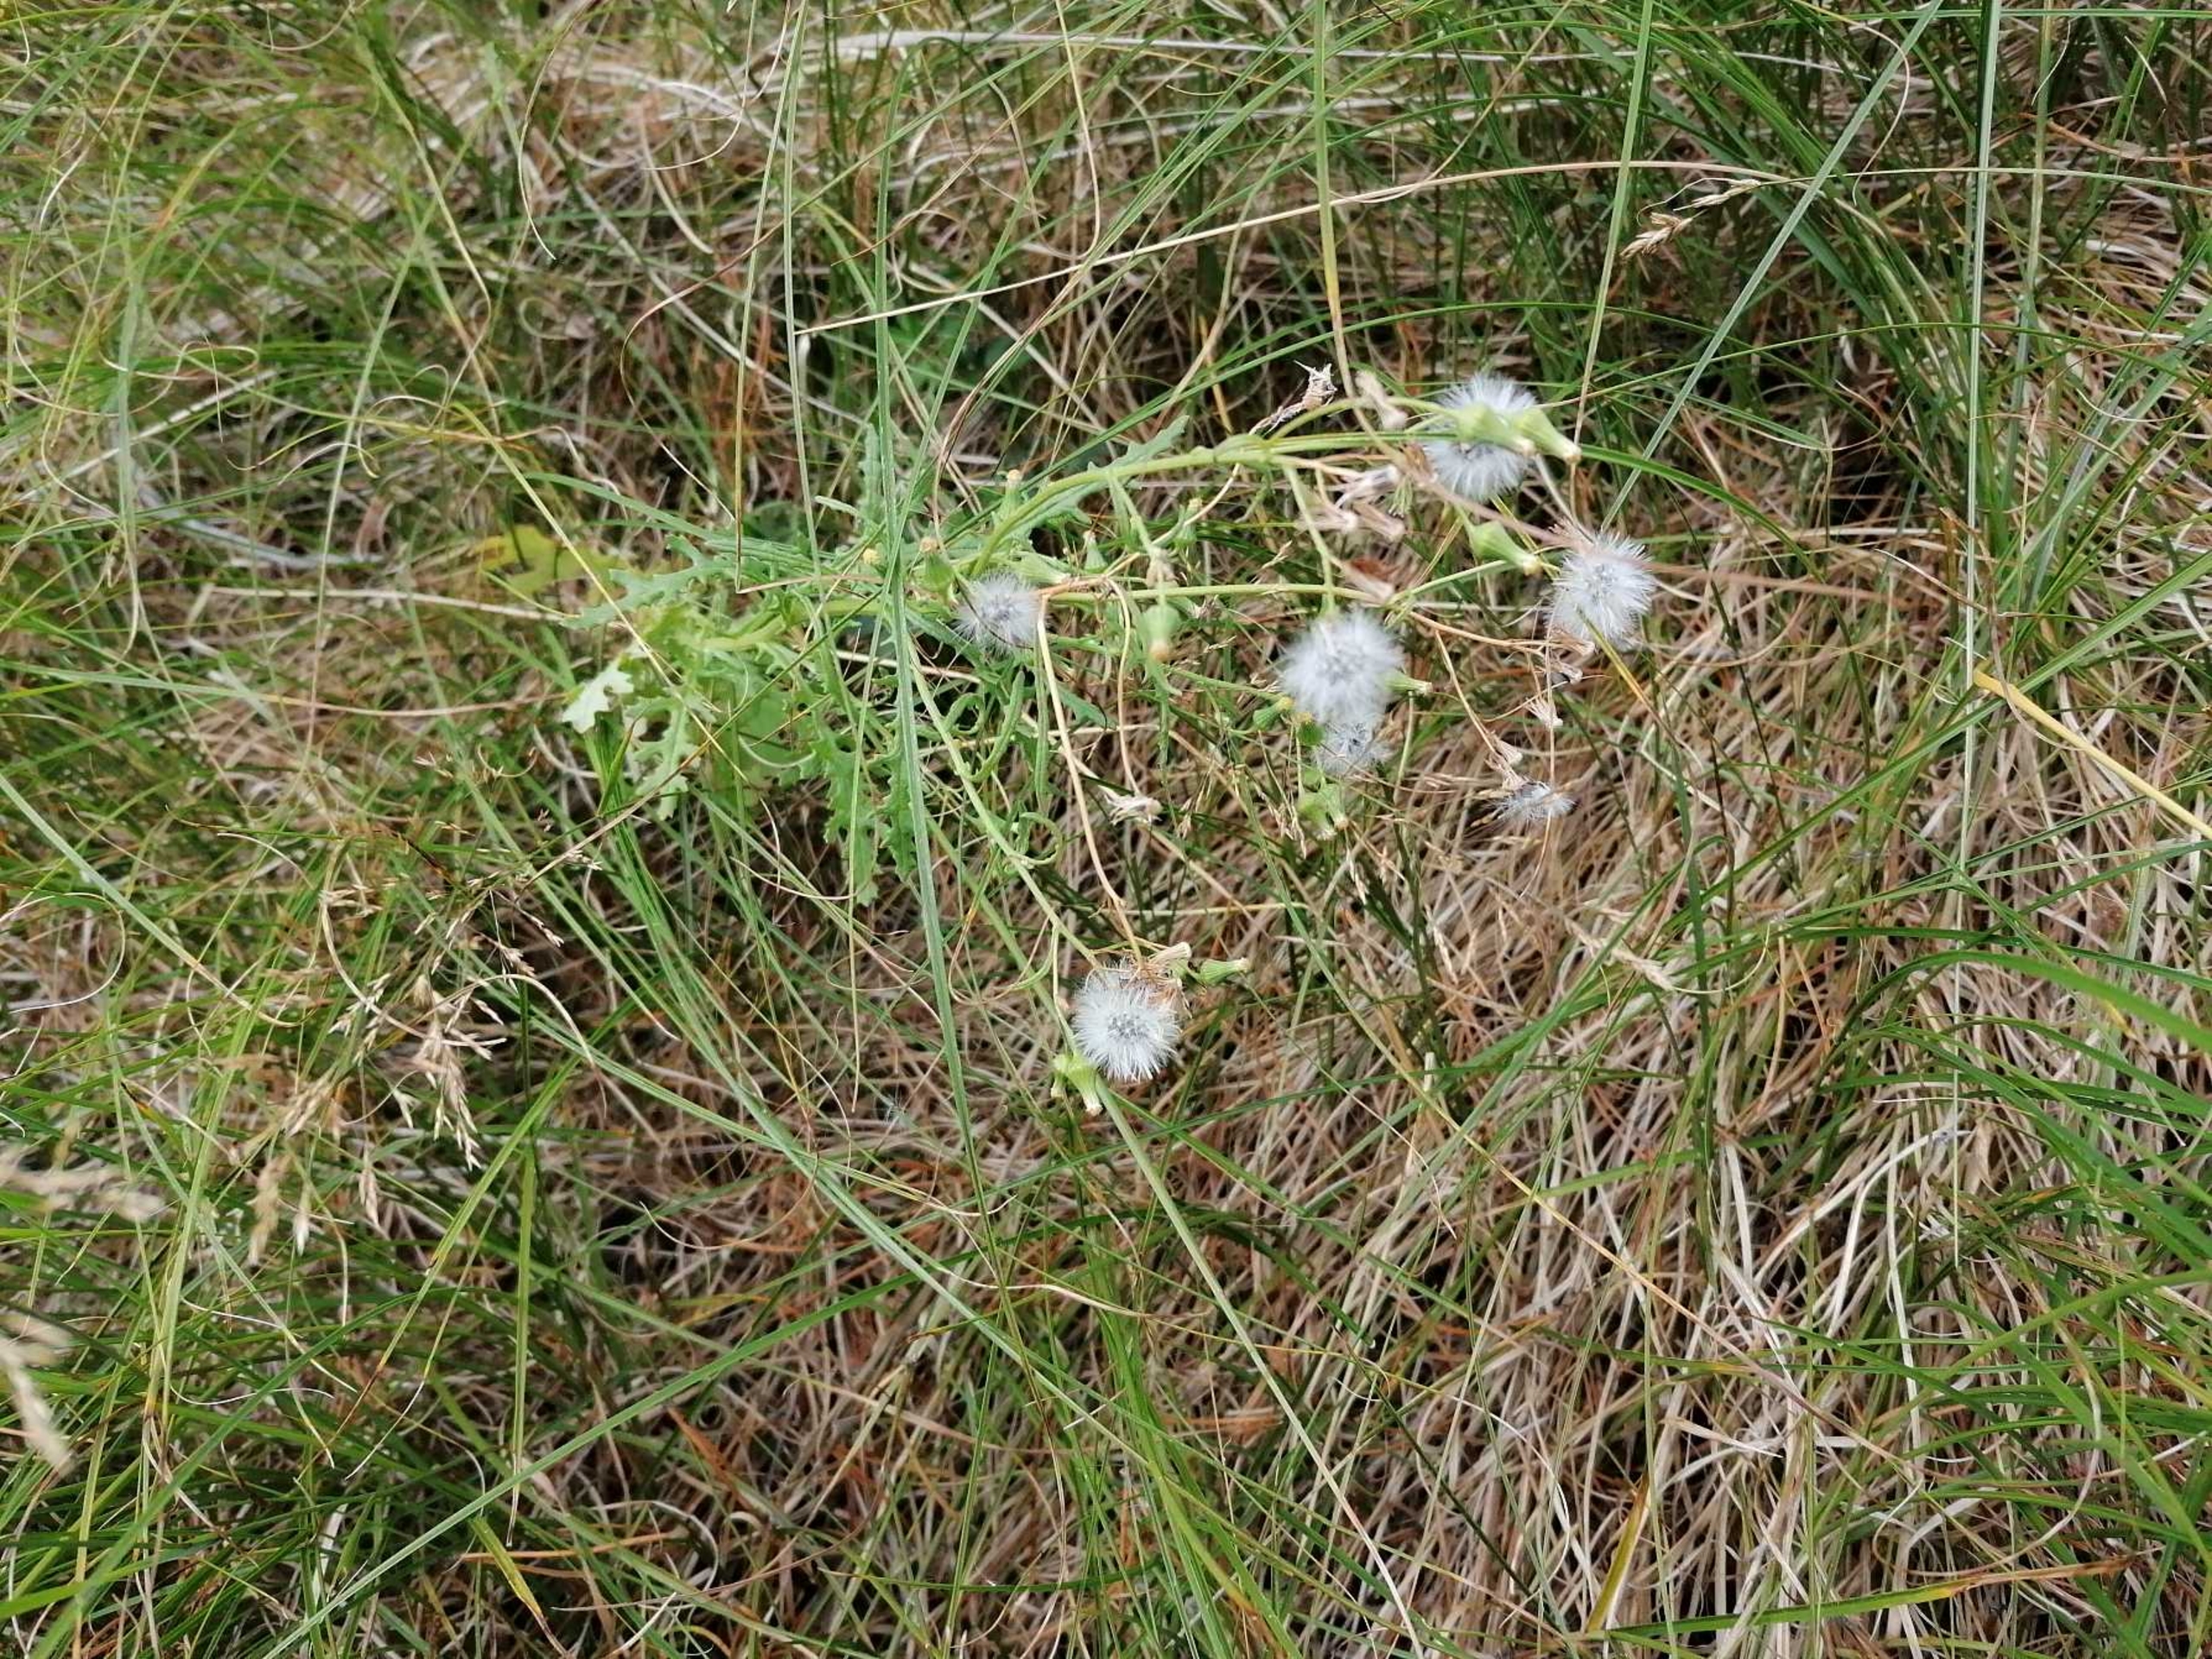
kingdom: Plantae
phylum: Tracheophyta
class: Magnoliopsida
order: Asterales
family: Asteraceae
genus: Senecio
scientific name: Senecio vulgaris
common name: Almindelig brandbæger
